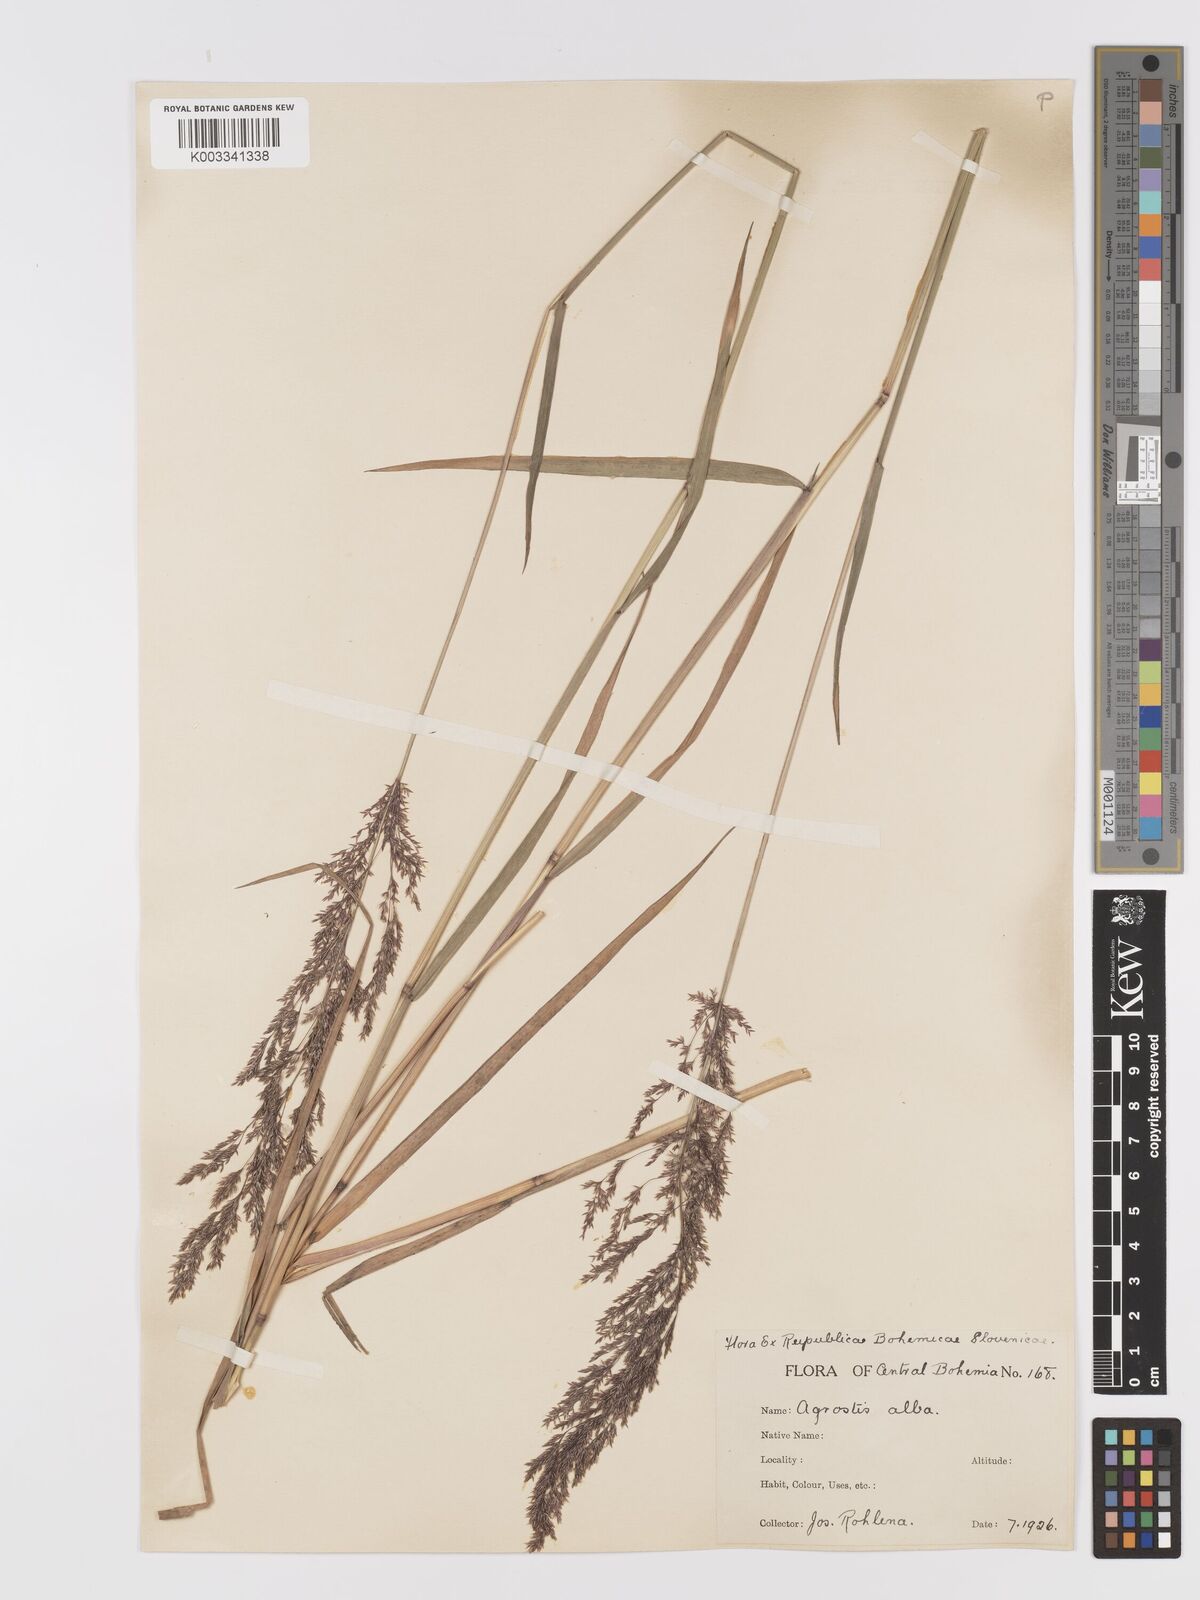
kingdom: Plantae
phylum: Tracheophyta
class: Liliopsida
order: Poales
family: Poaceae
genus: Agrostis
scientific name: Agrostis gigantea
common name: Black bent
